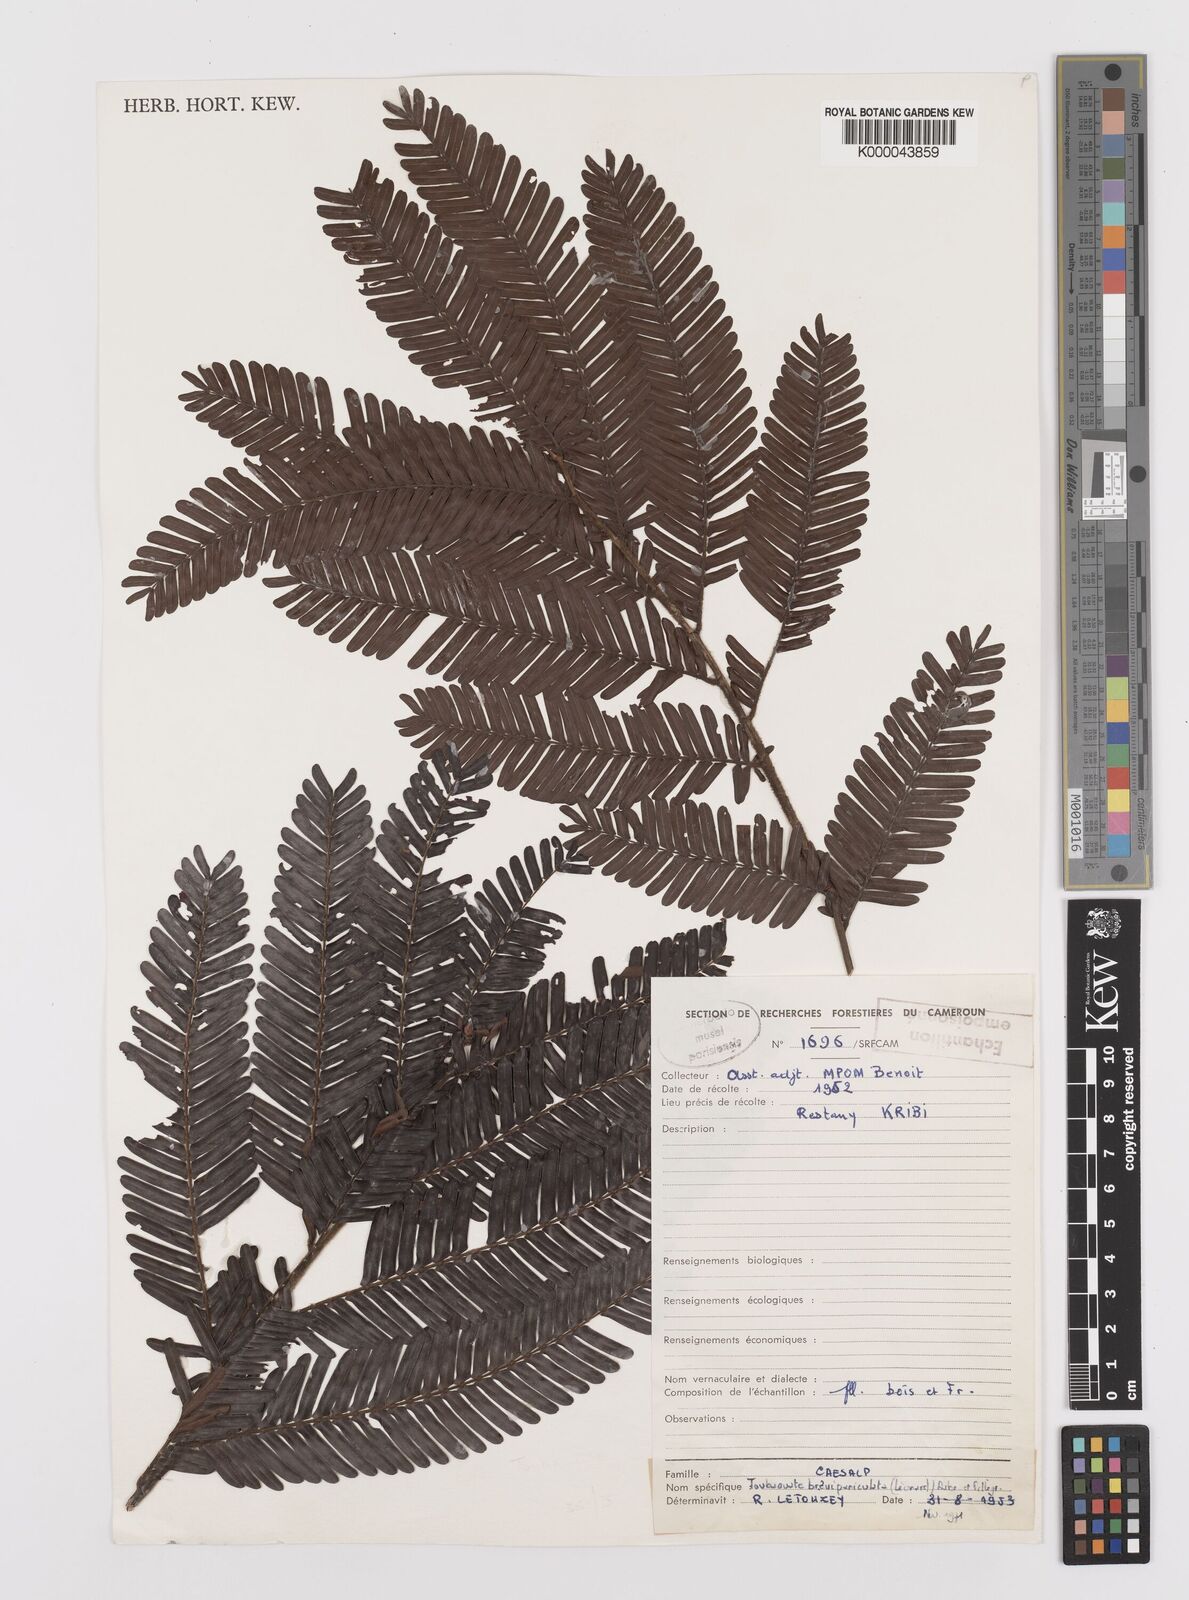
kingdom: Plantae
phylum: Tracheophyta
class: Magnoliopsida
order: Fabales
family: Fabaceae
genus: Didelotia
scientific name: Didelotia
